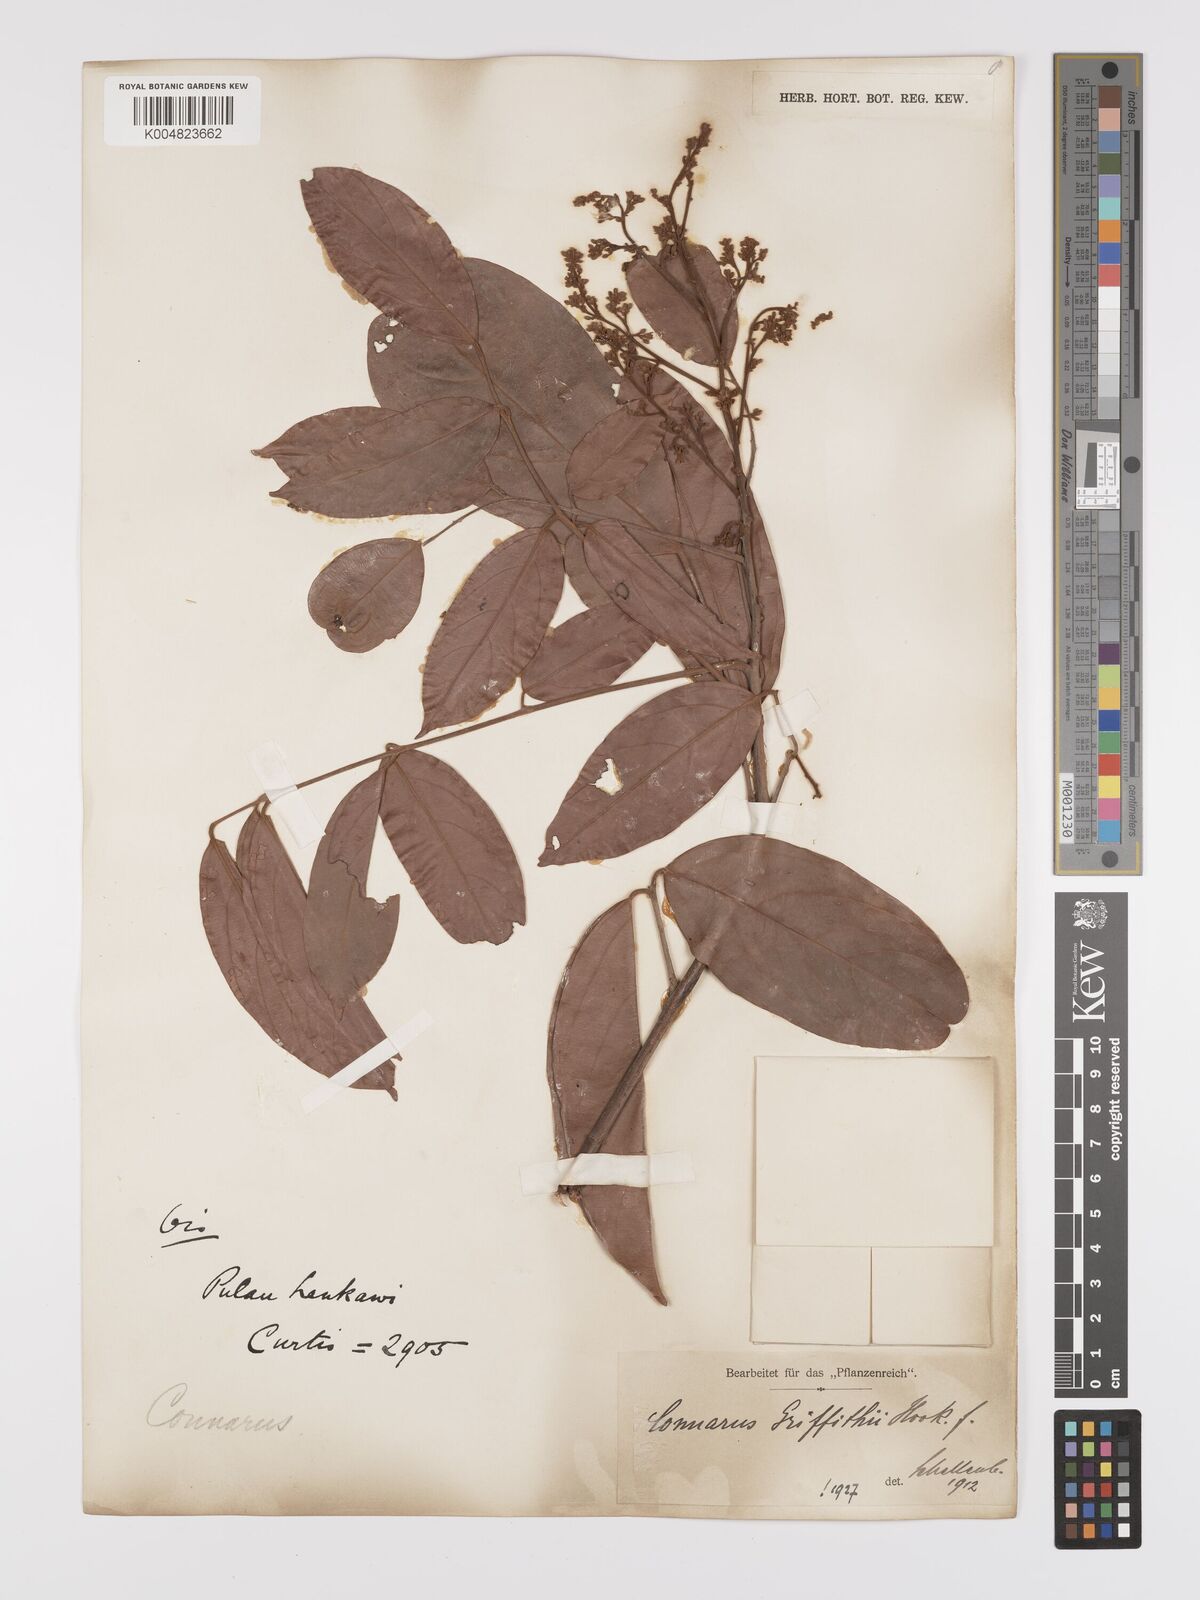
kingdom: Plantae
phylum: Tracheophyta
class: Magnoliopsida
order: Oxalidales
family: Connaraceae
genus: Connarus
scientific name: Connarus semidecandrus
